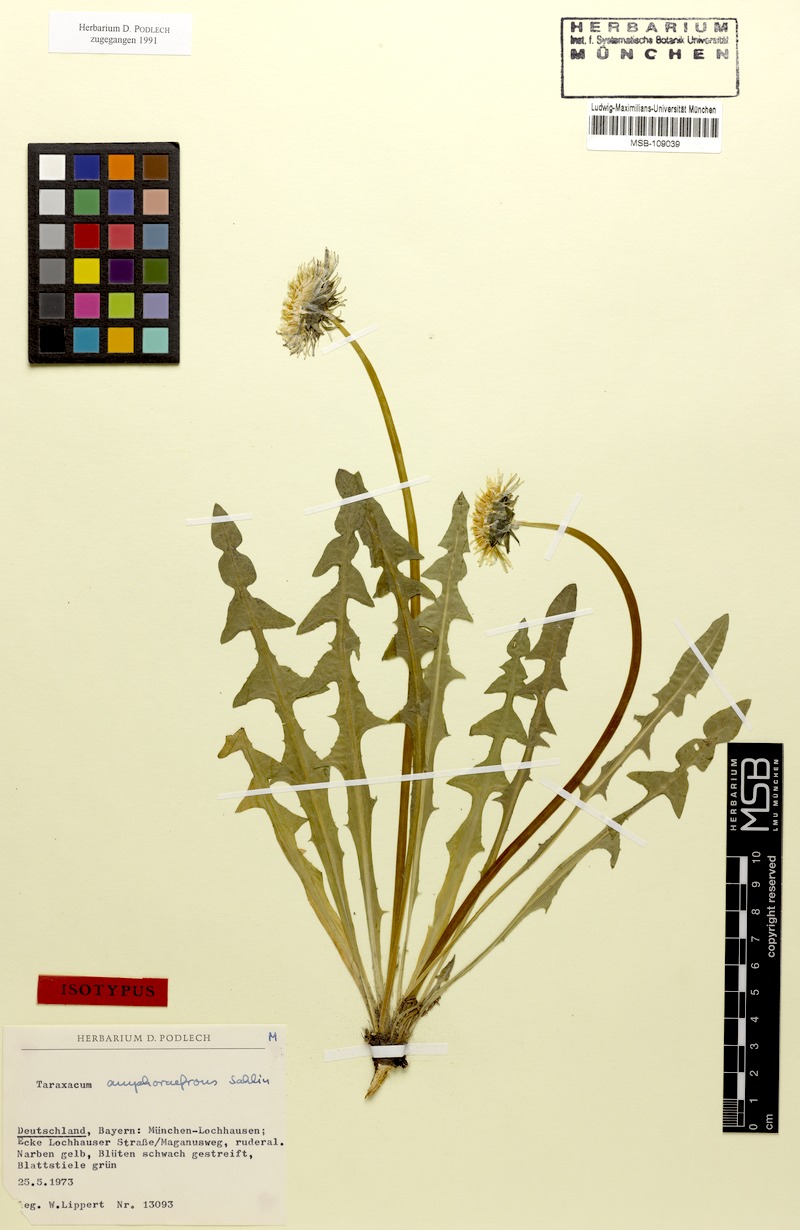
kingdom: Plantae
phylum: Tracheophyta
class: Magnoliopsida
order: Asterales
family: Asteraceae
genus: Taraxacum
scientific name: Taraxacum amphoraefrons
